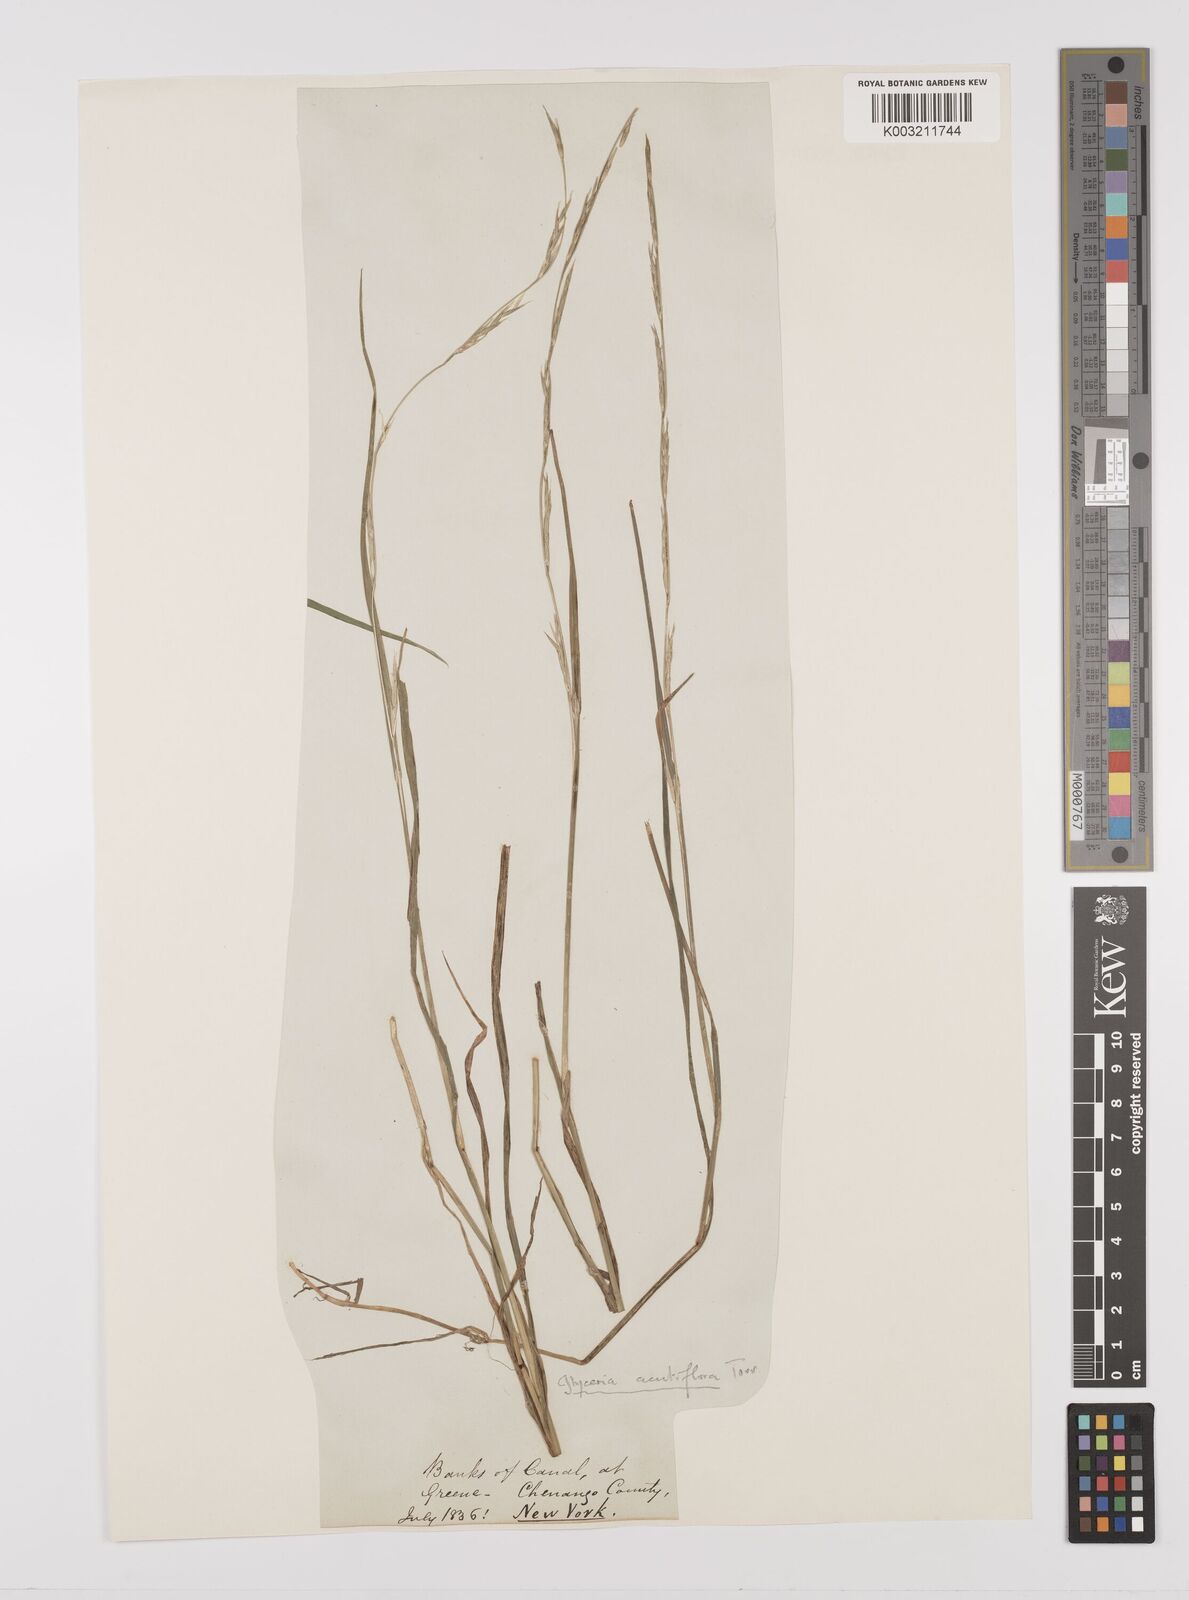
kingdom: Plantae
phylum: Tracheophyta
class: Liliopsida
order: Poales
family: Poaceae
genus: Glyceria
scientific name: Glyceria acutiflora
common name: Sharp-glumed manna-grass
